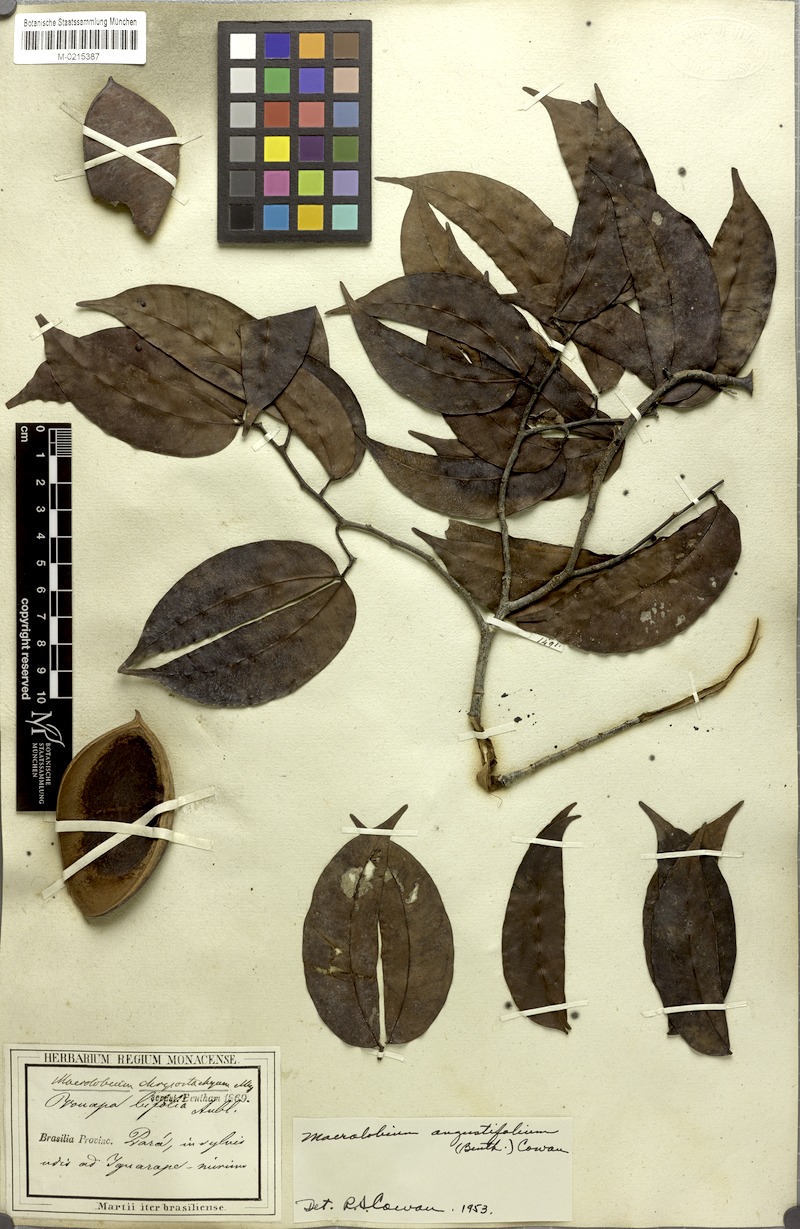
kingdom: Plantae
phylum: Tracheophyta
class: Magnoliopsida
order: Fabales
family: Fabaceae
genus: Macrolobium
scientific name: Macrolobium angustifolium
